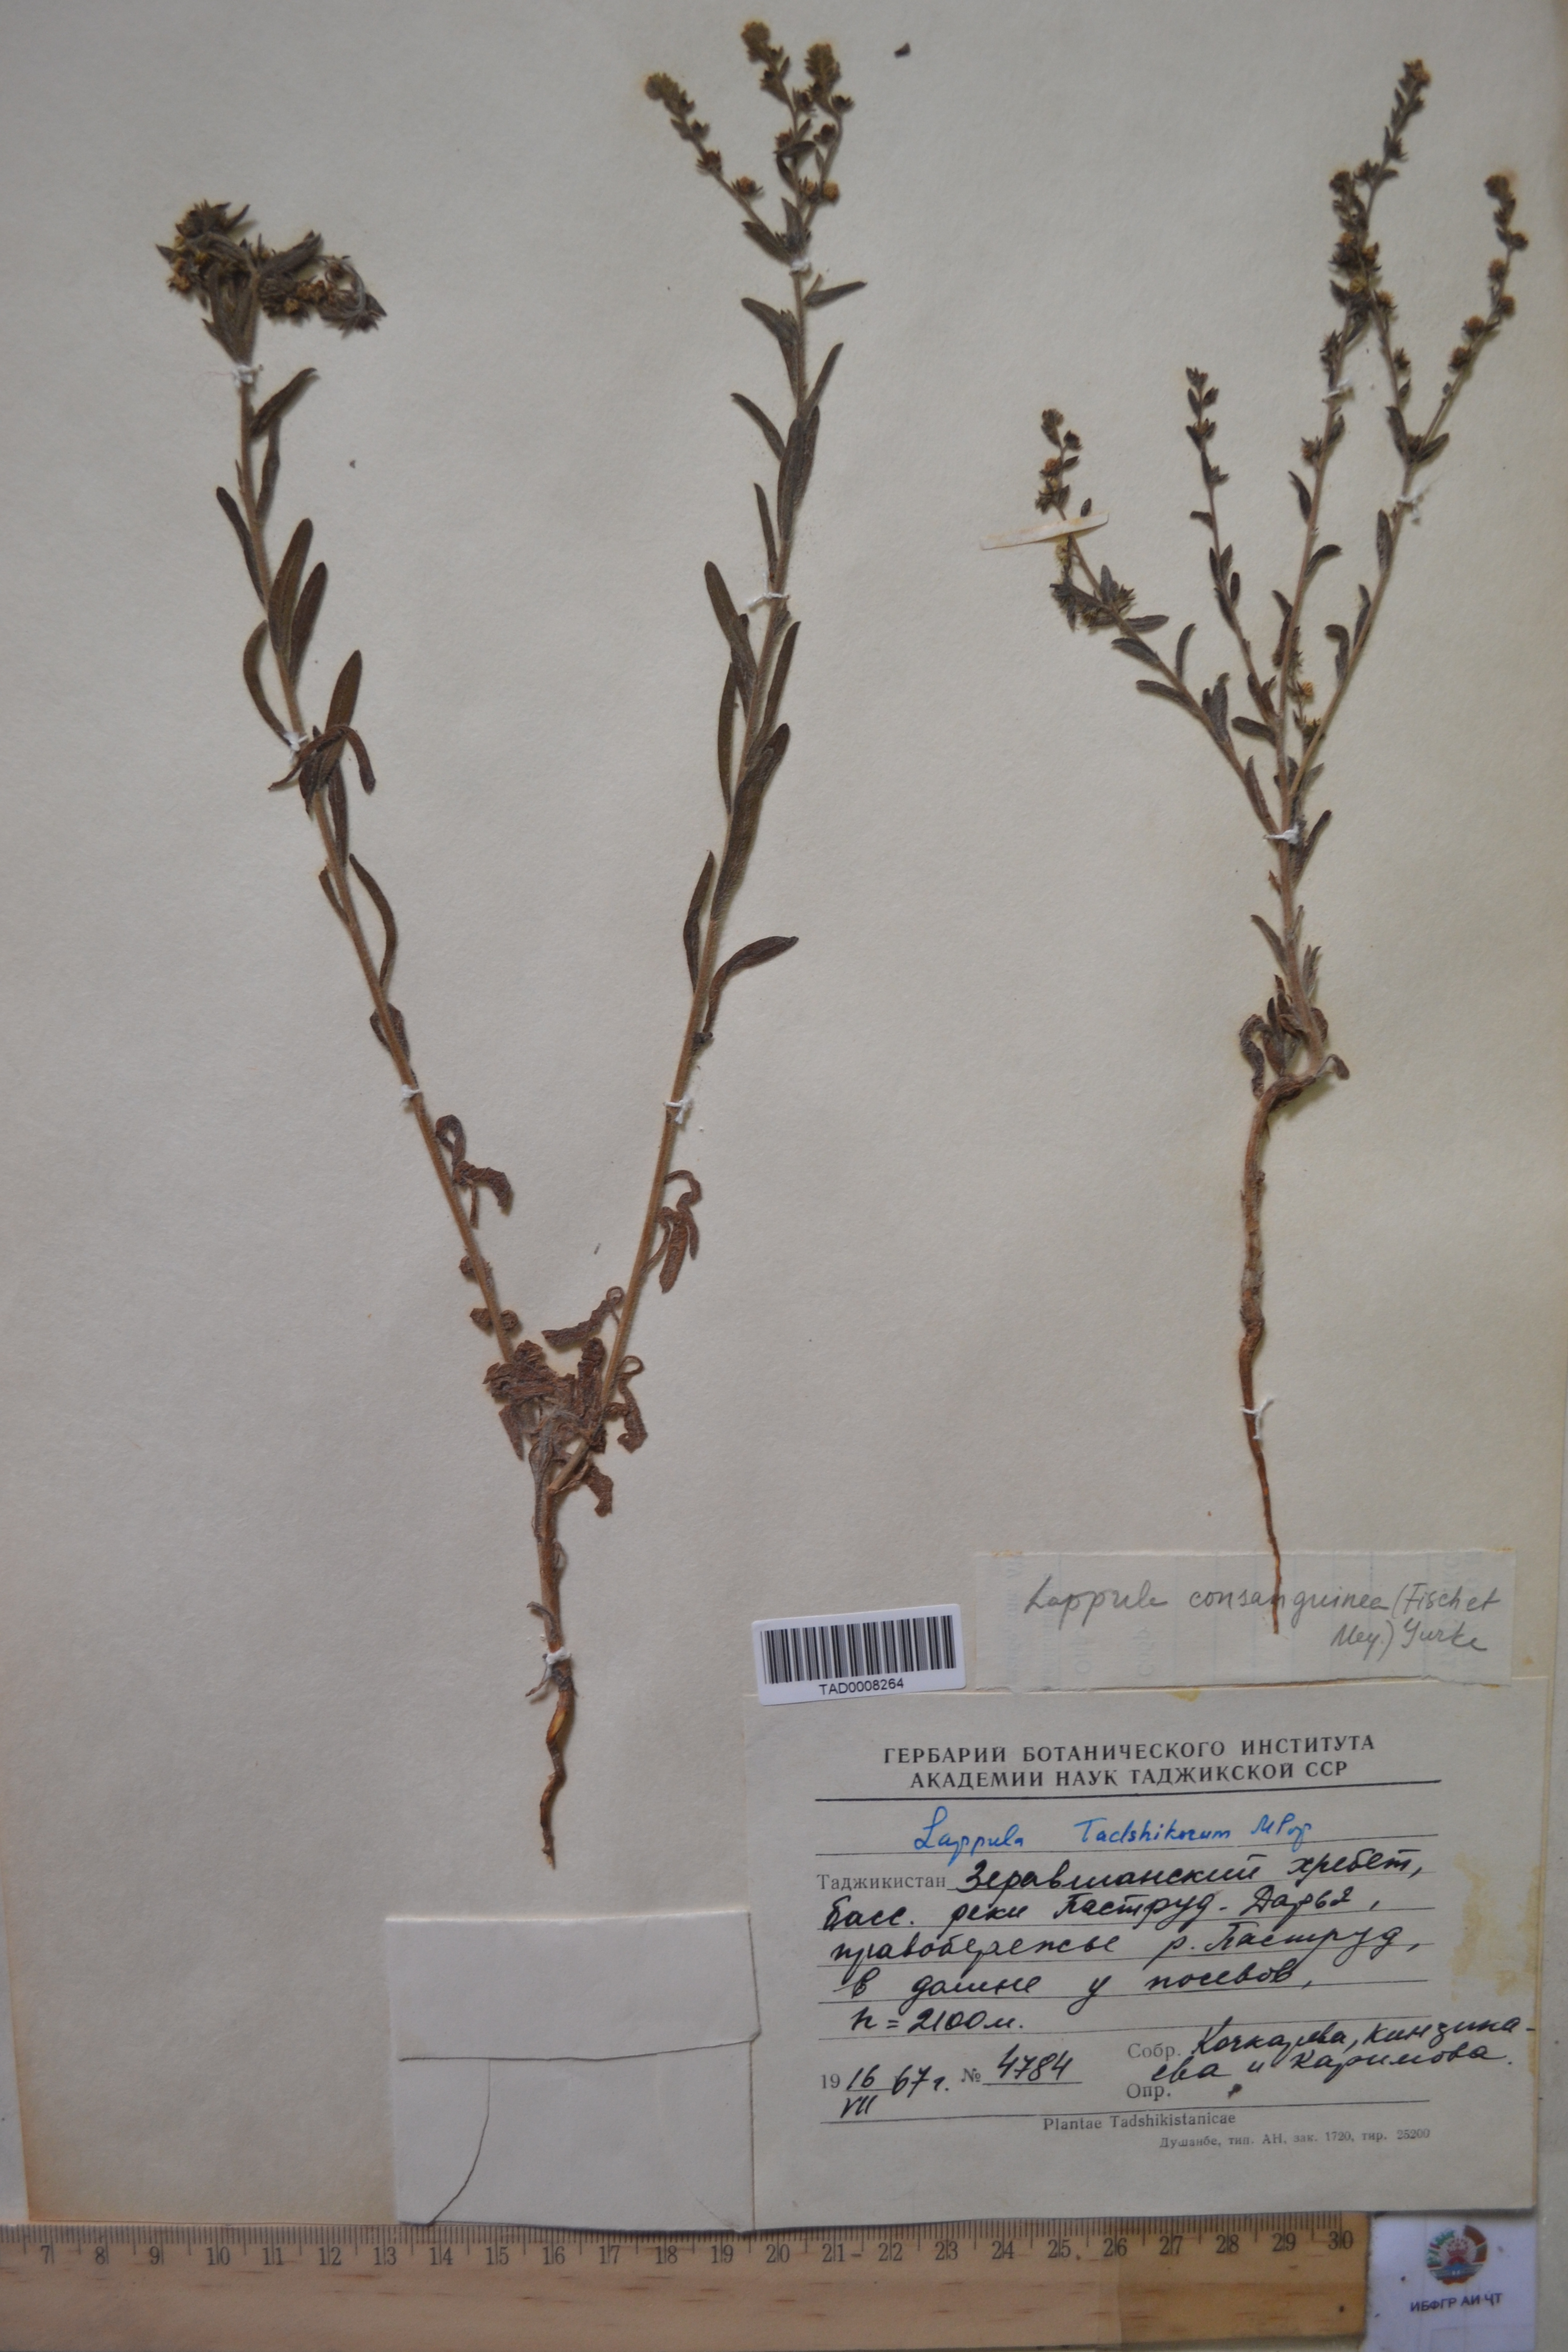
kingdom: Plantae
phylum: Tracheophyta
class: Magnoliopsida
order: Boraginales
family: Boraginaceae
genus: Lappula
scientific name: Lappula tadshikorum
